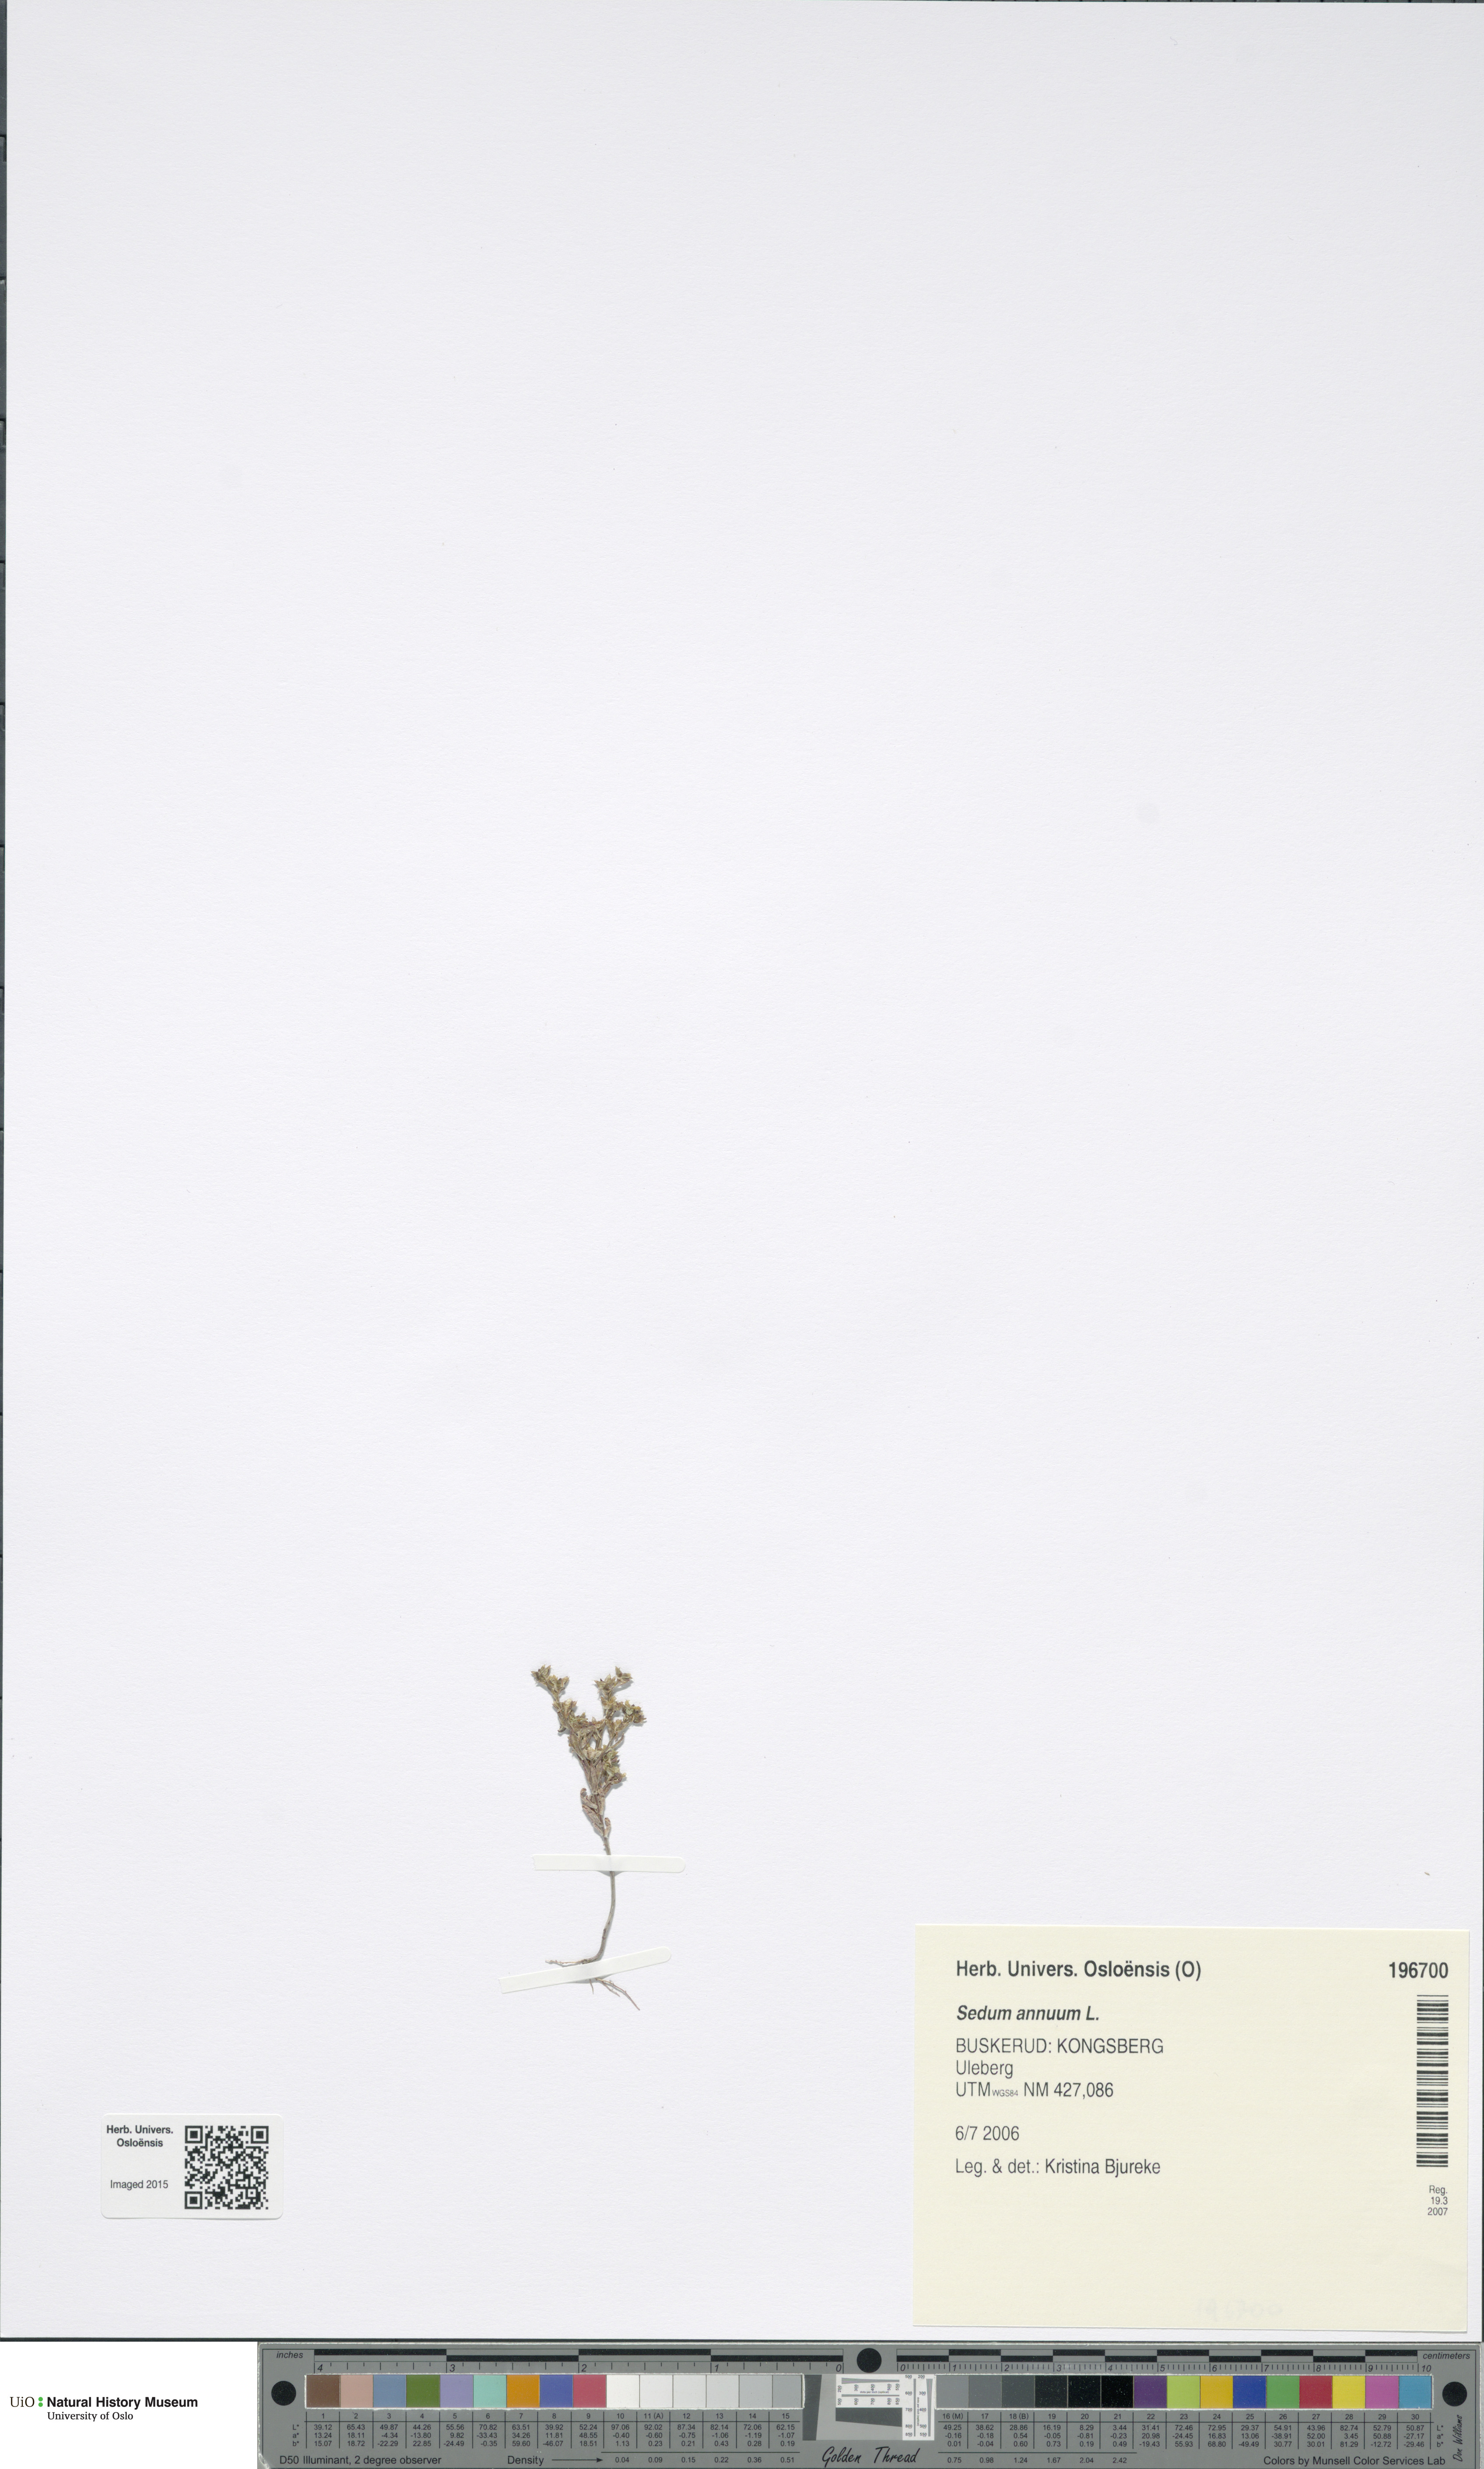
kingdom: Plantae
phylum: Tracheophyta
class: Magnoliopsida
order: Saxifragales
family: Crassulaceae
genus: Sedum
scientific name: Sedum annuum
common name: Annual stonecrop
